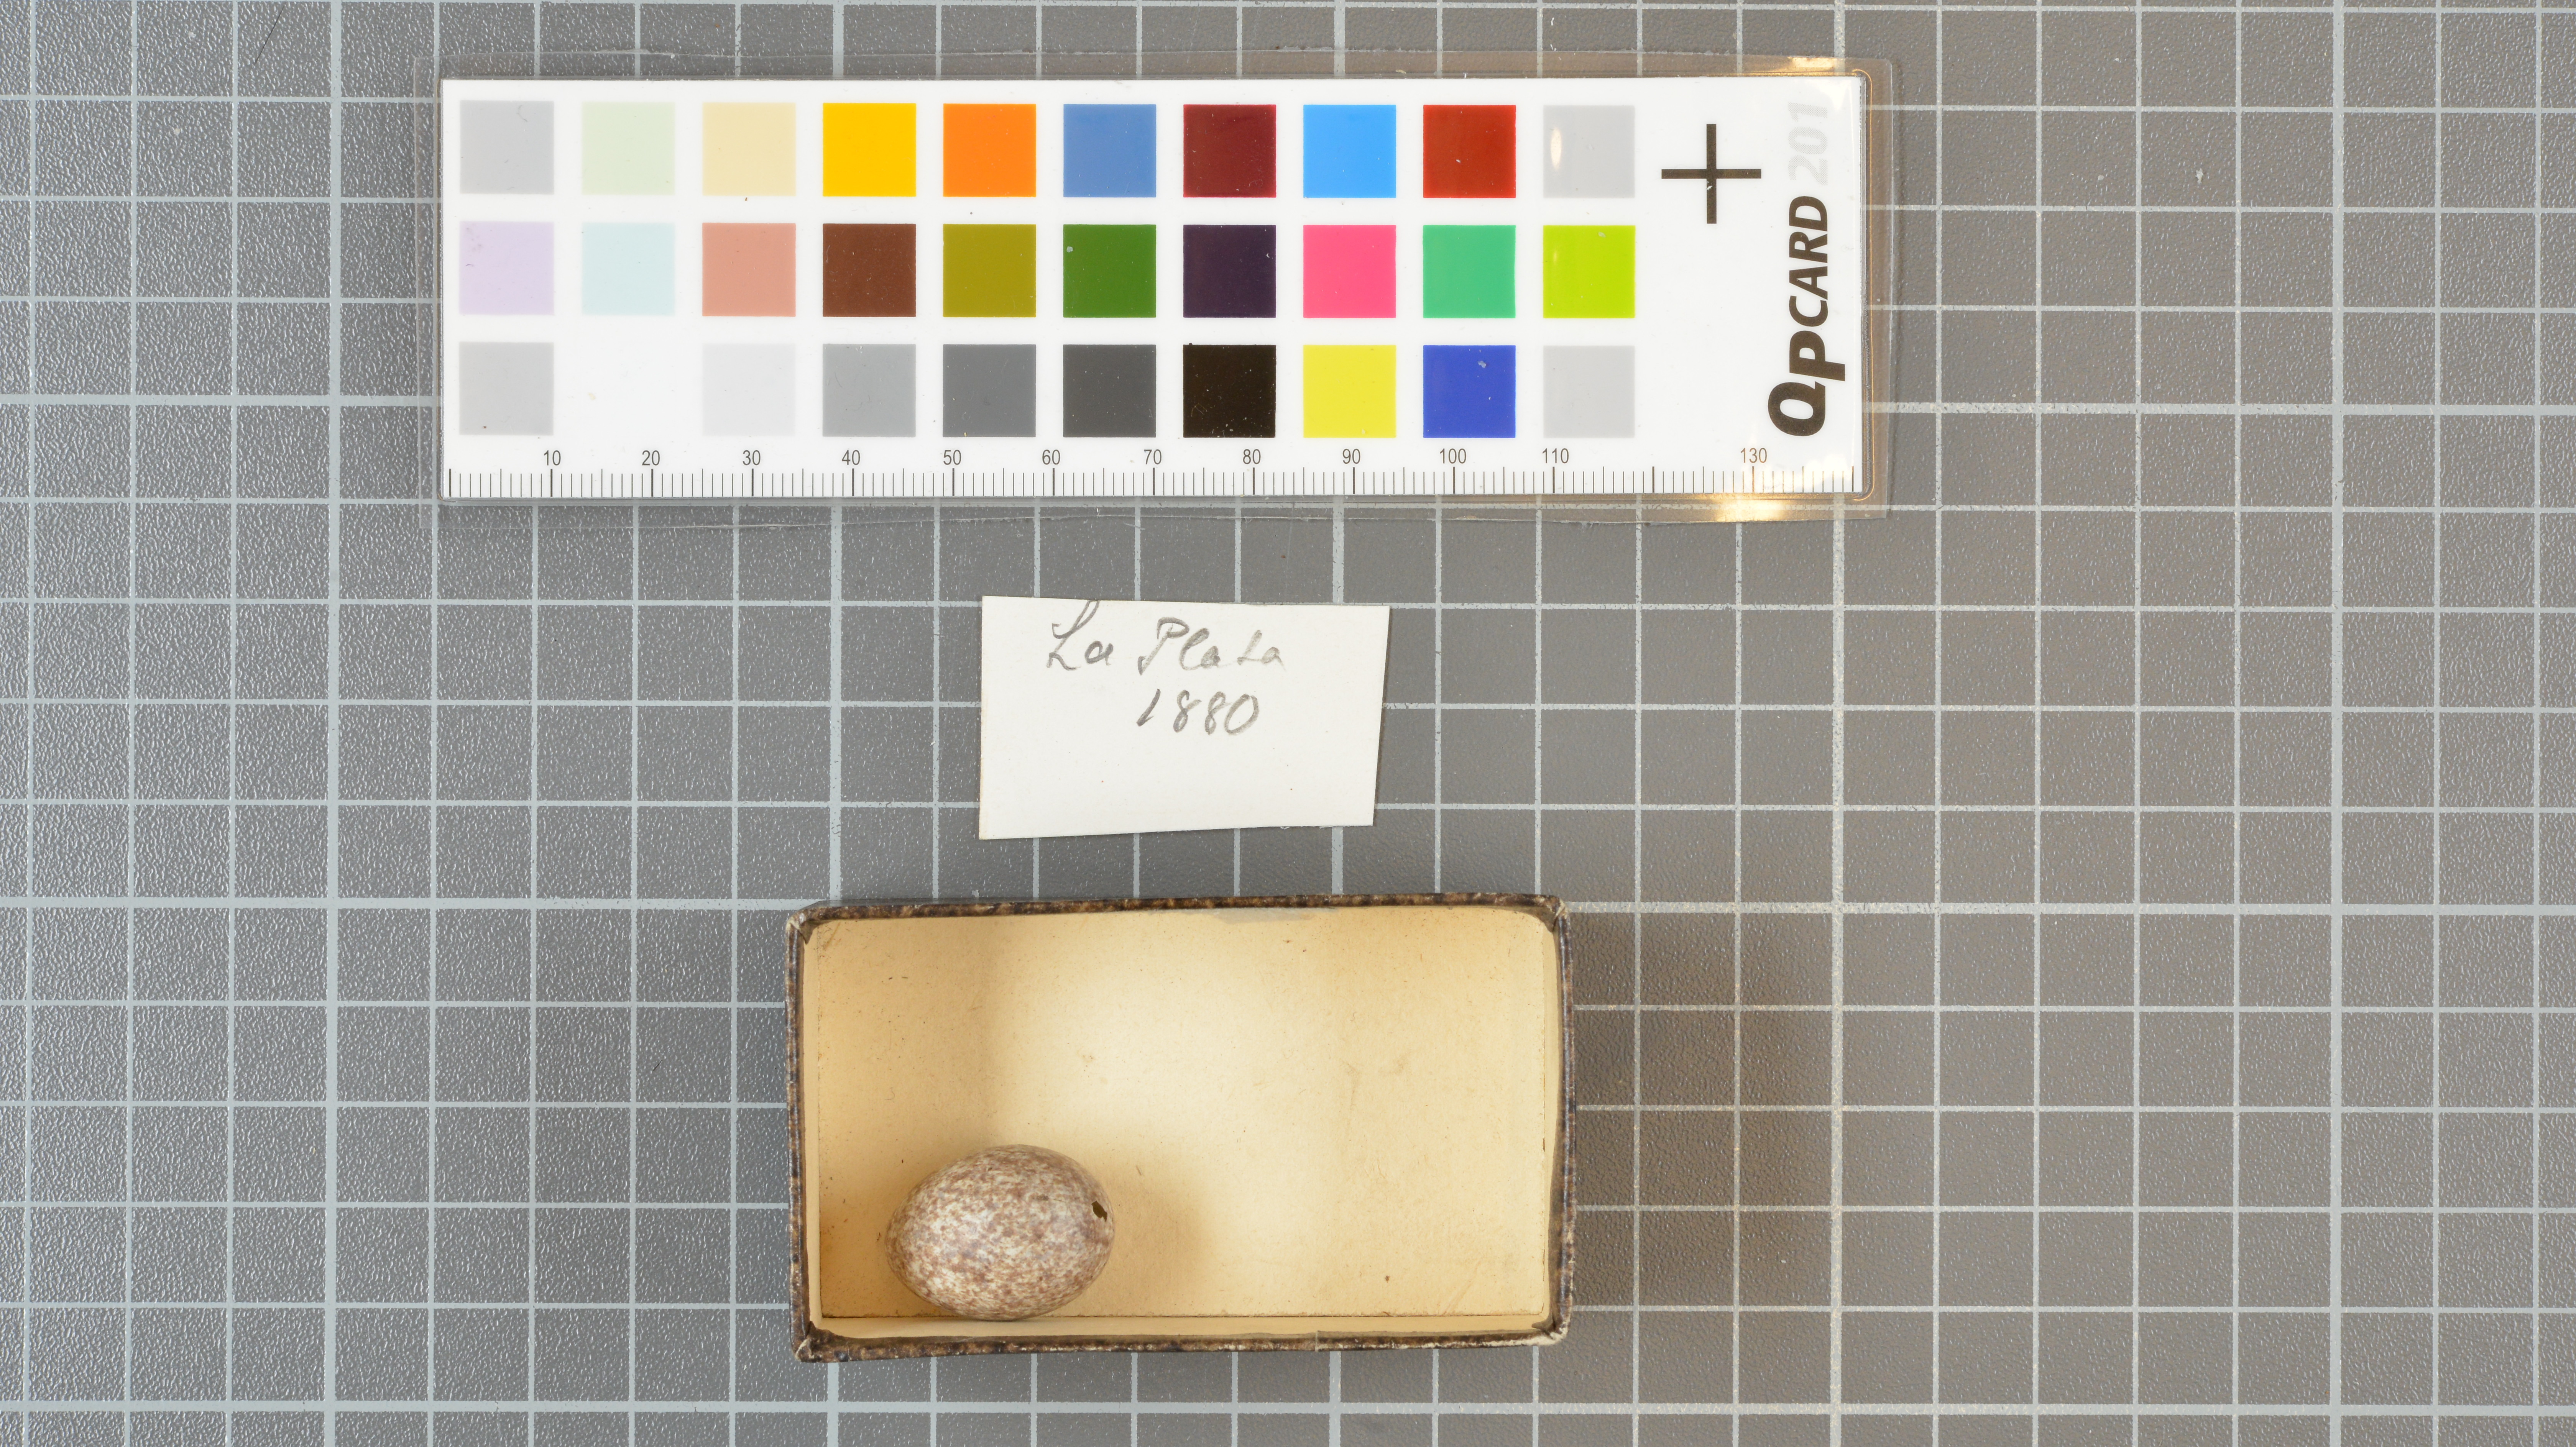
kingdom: Animalia
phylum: Chordata
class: Aves
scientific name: Aves
